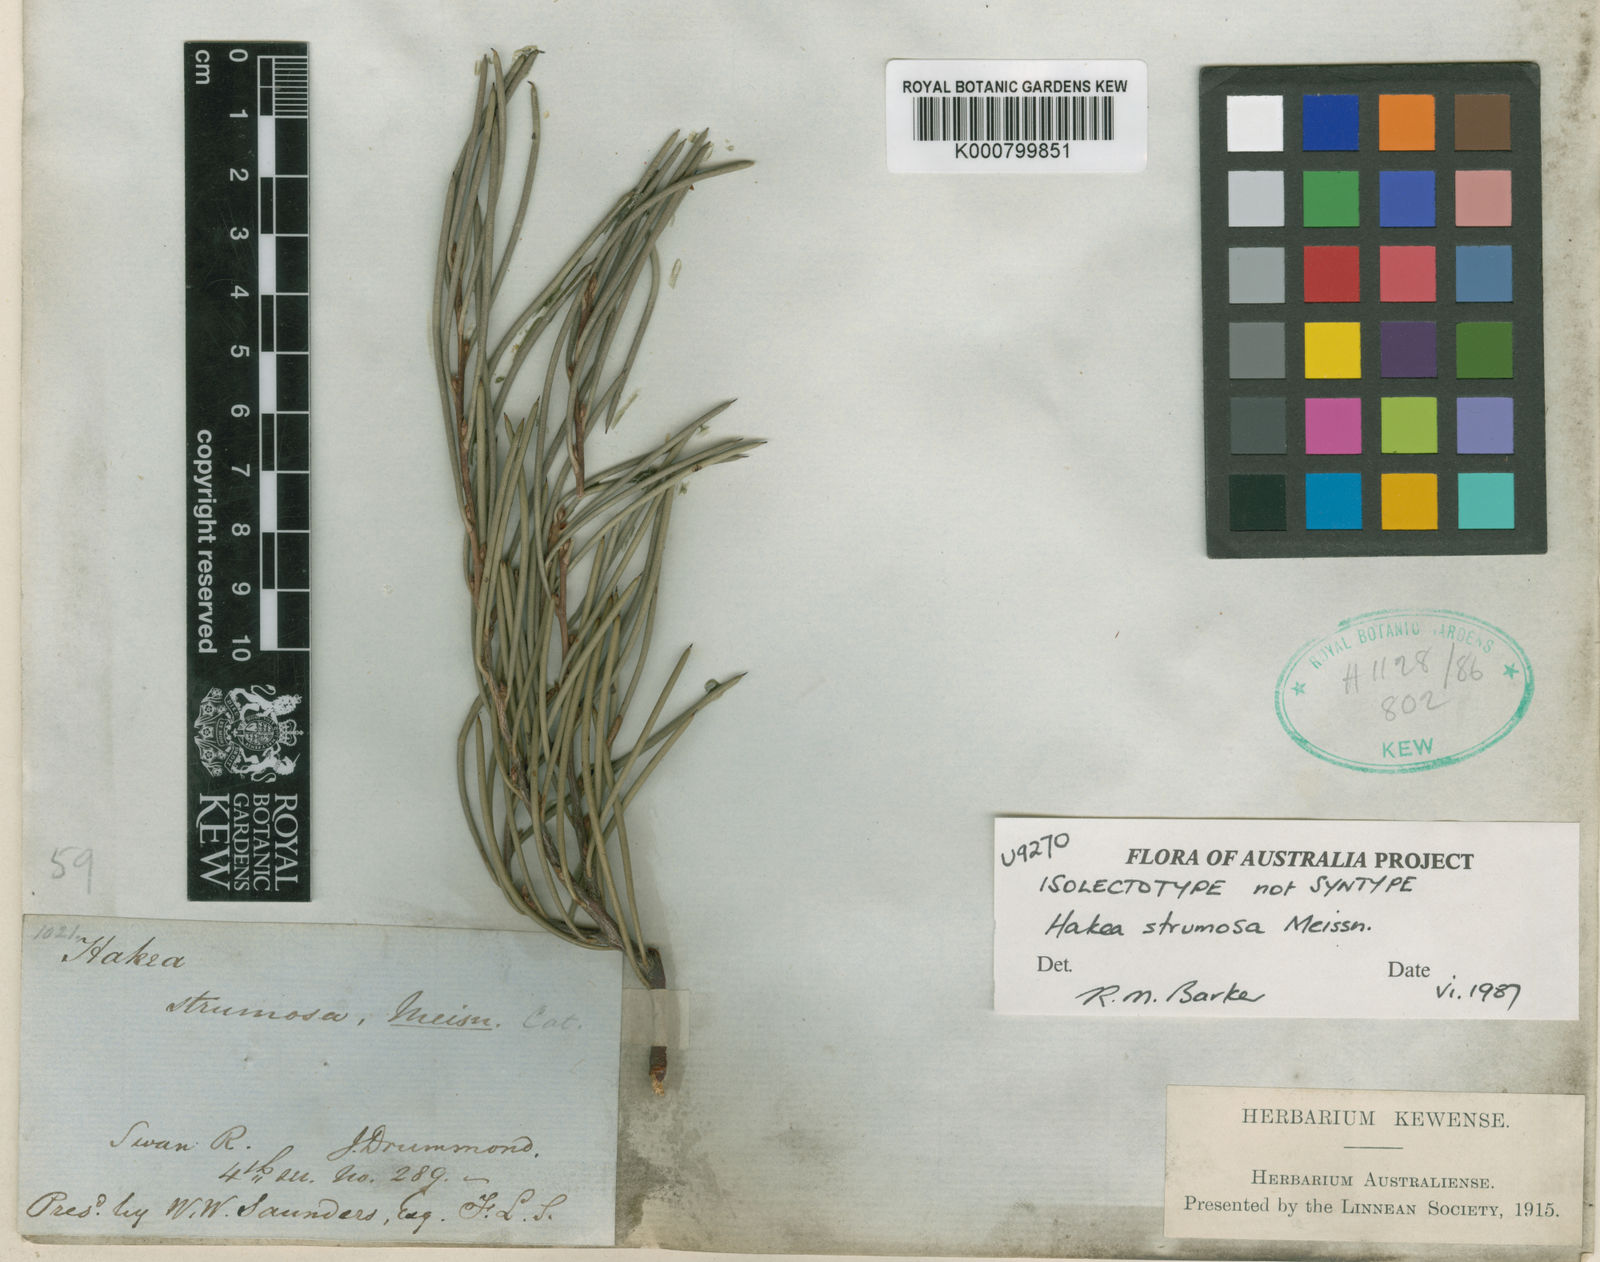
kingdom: Plantae
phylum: Tracheophyta
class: Magnoliopsida
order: Proteales
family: Proteaceae
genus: Hakea
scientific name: Hakea strumosa
